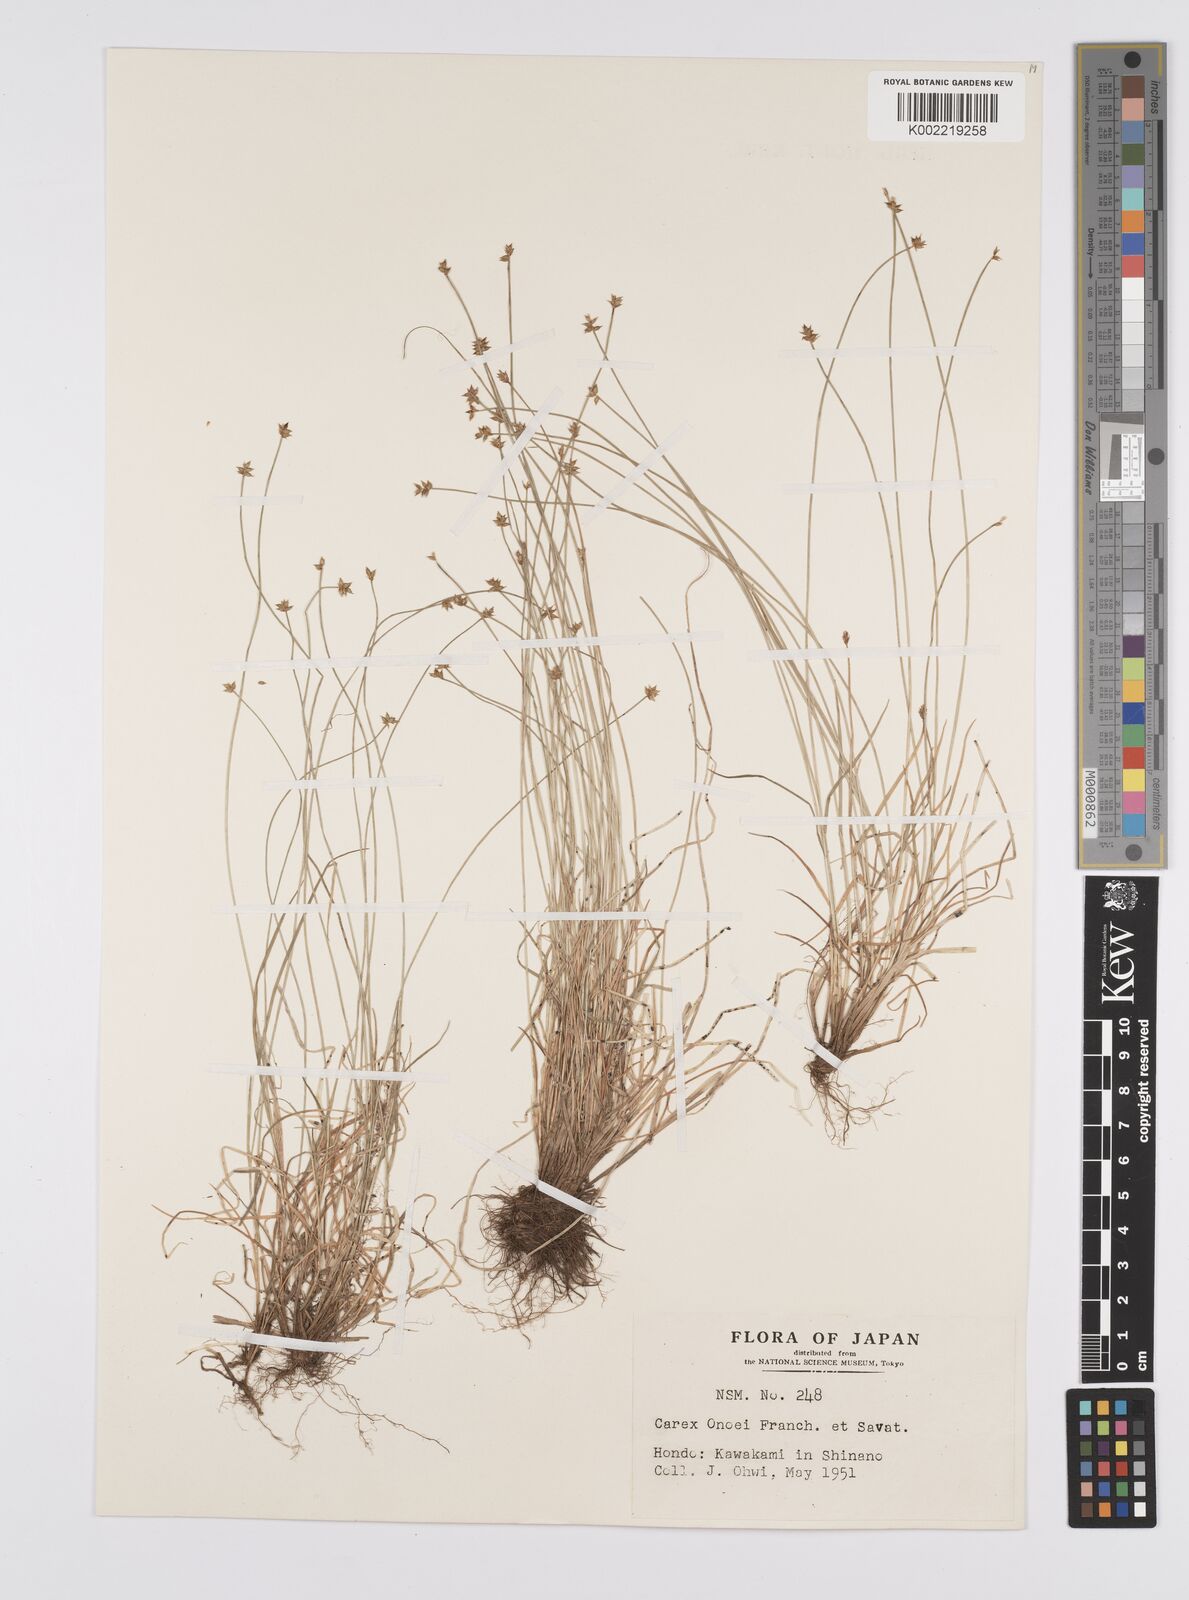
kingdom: Plantae
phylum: Tracheophyta
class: Liliopsida
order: Poales
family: Cyperaceae
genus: Carex
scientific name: Carex onoei
